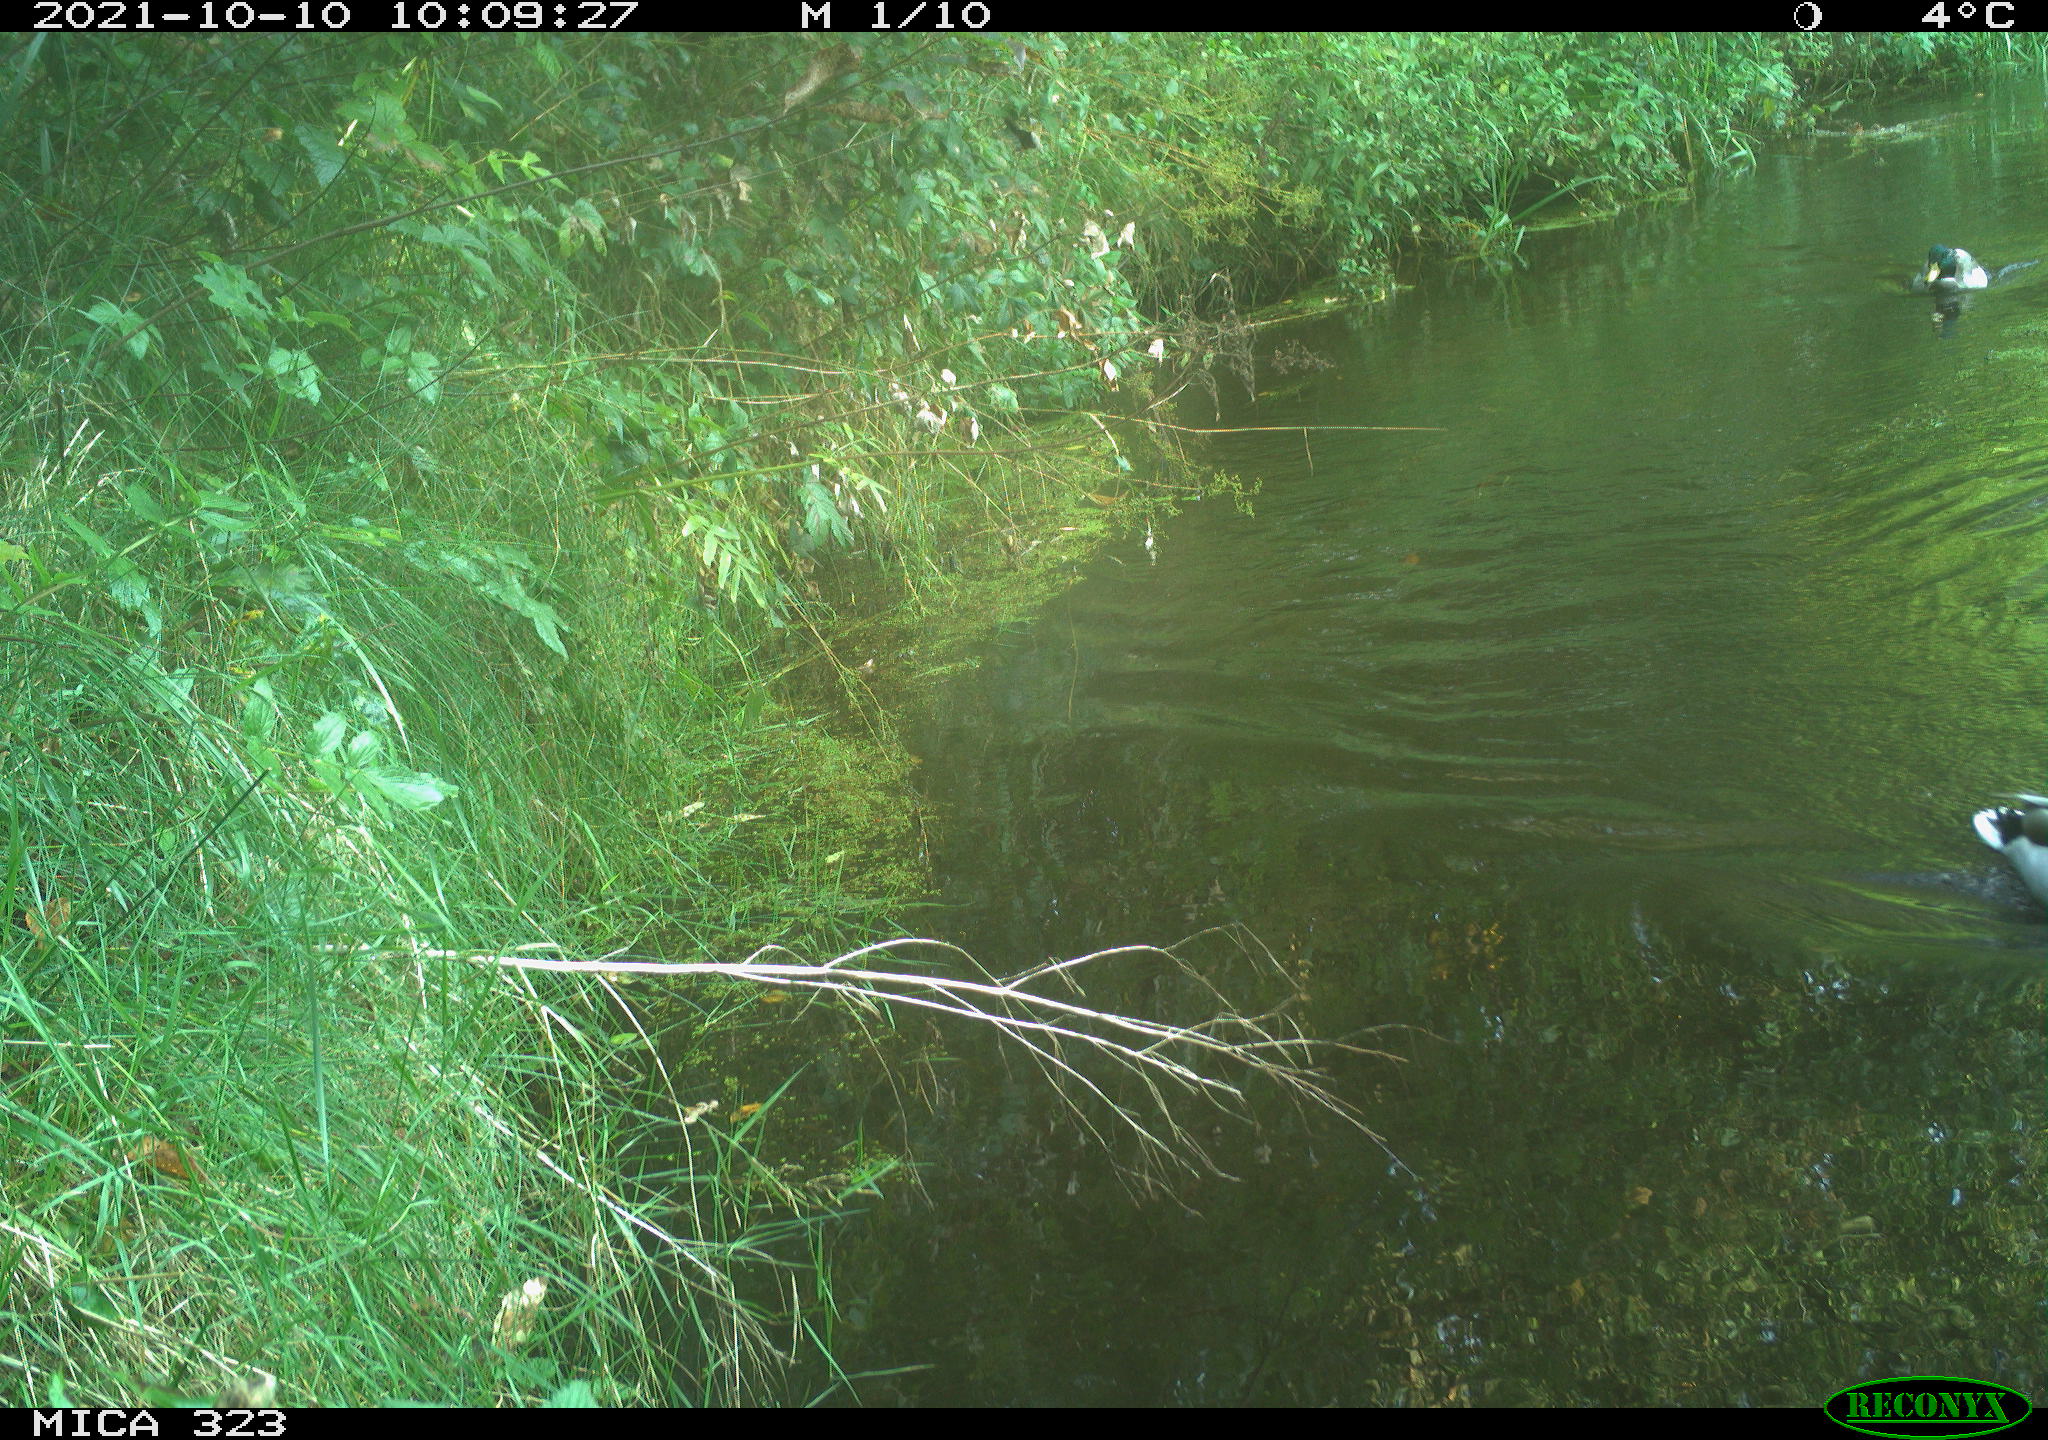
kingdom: Animalia
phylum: Chordata
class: Aves
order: Anseriformes
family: Anatidae
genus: Anas
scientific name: Anas platyrhynchos
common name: Mallard
